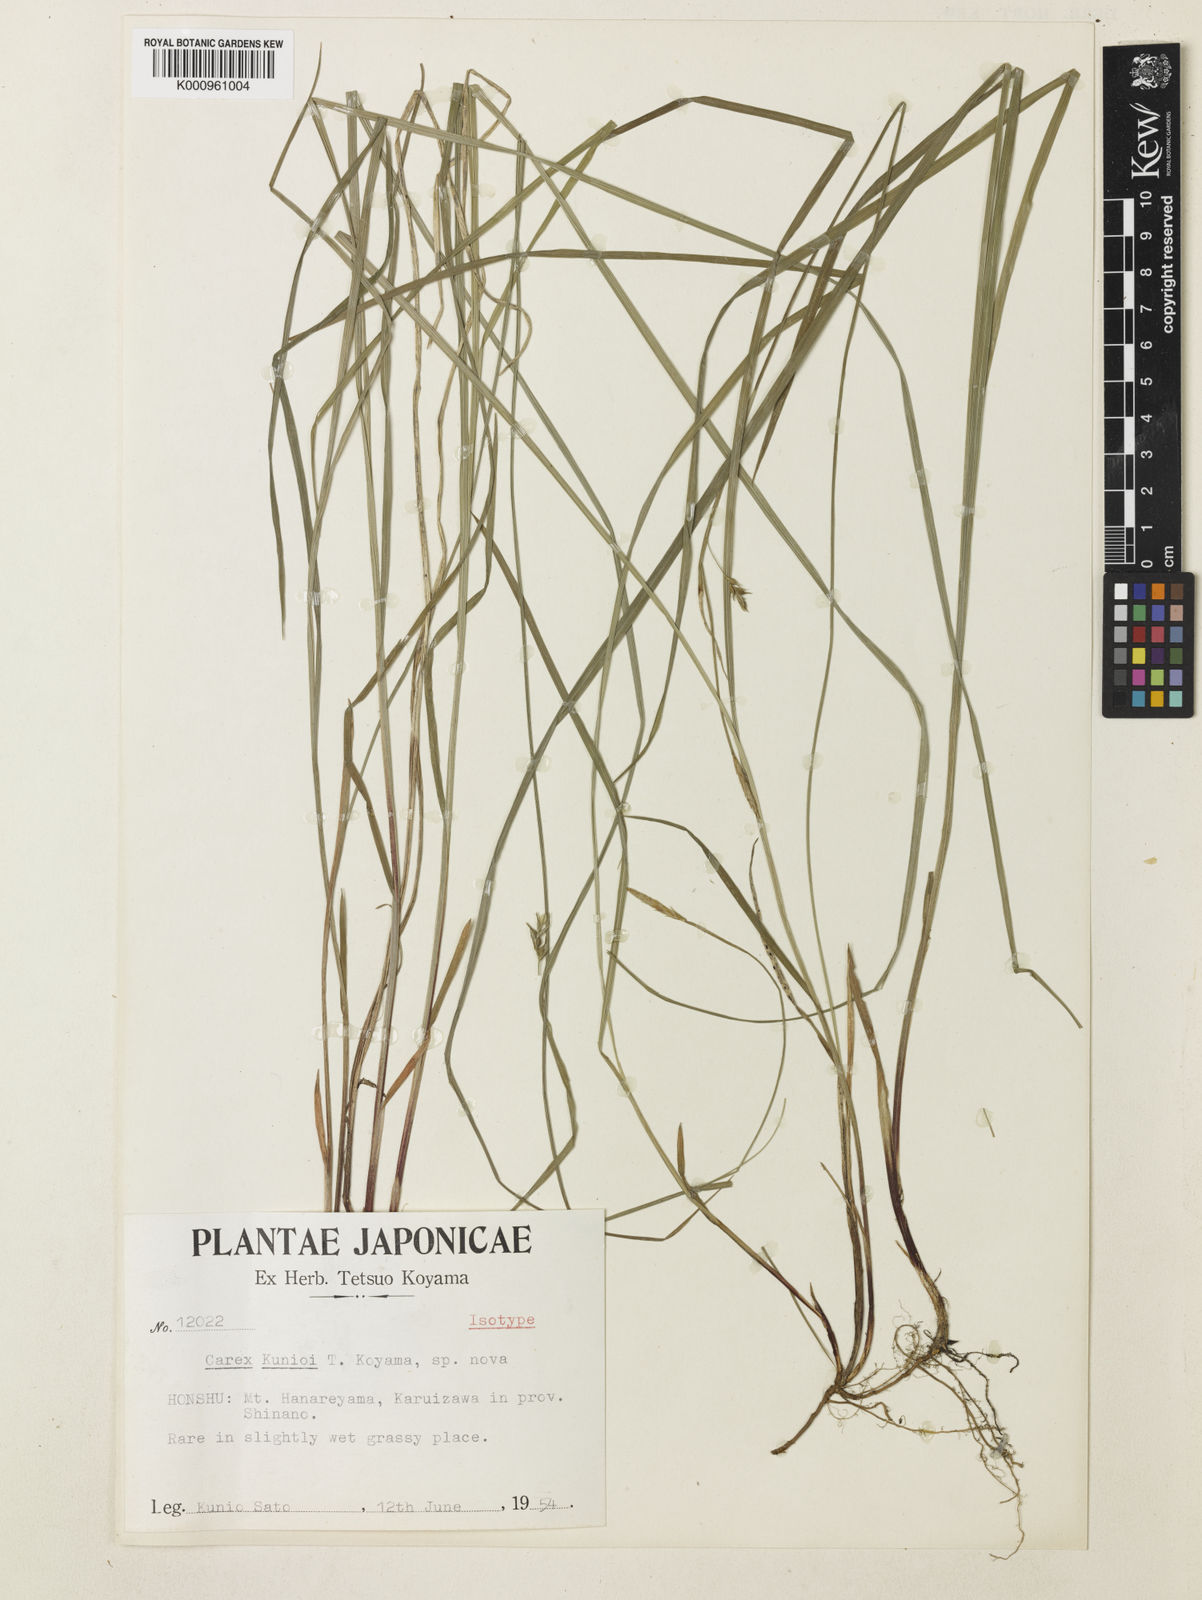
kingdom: Plantae
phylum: Tracheophyta
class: Liliopsida
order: Poales
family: Cyperaceae
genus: Carex
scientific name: Carex toyoshimae
